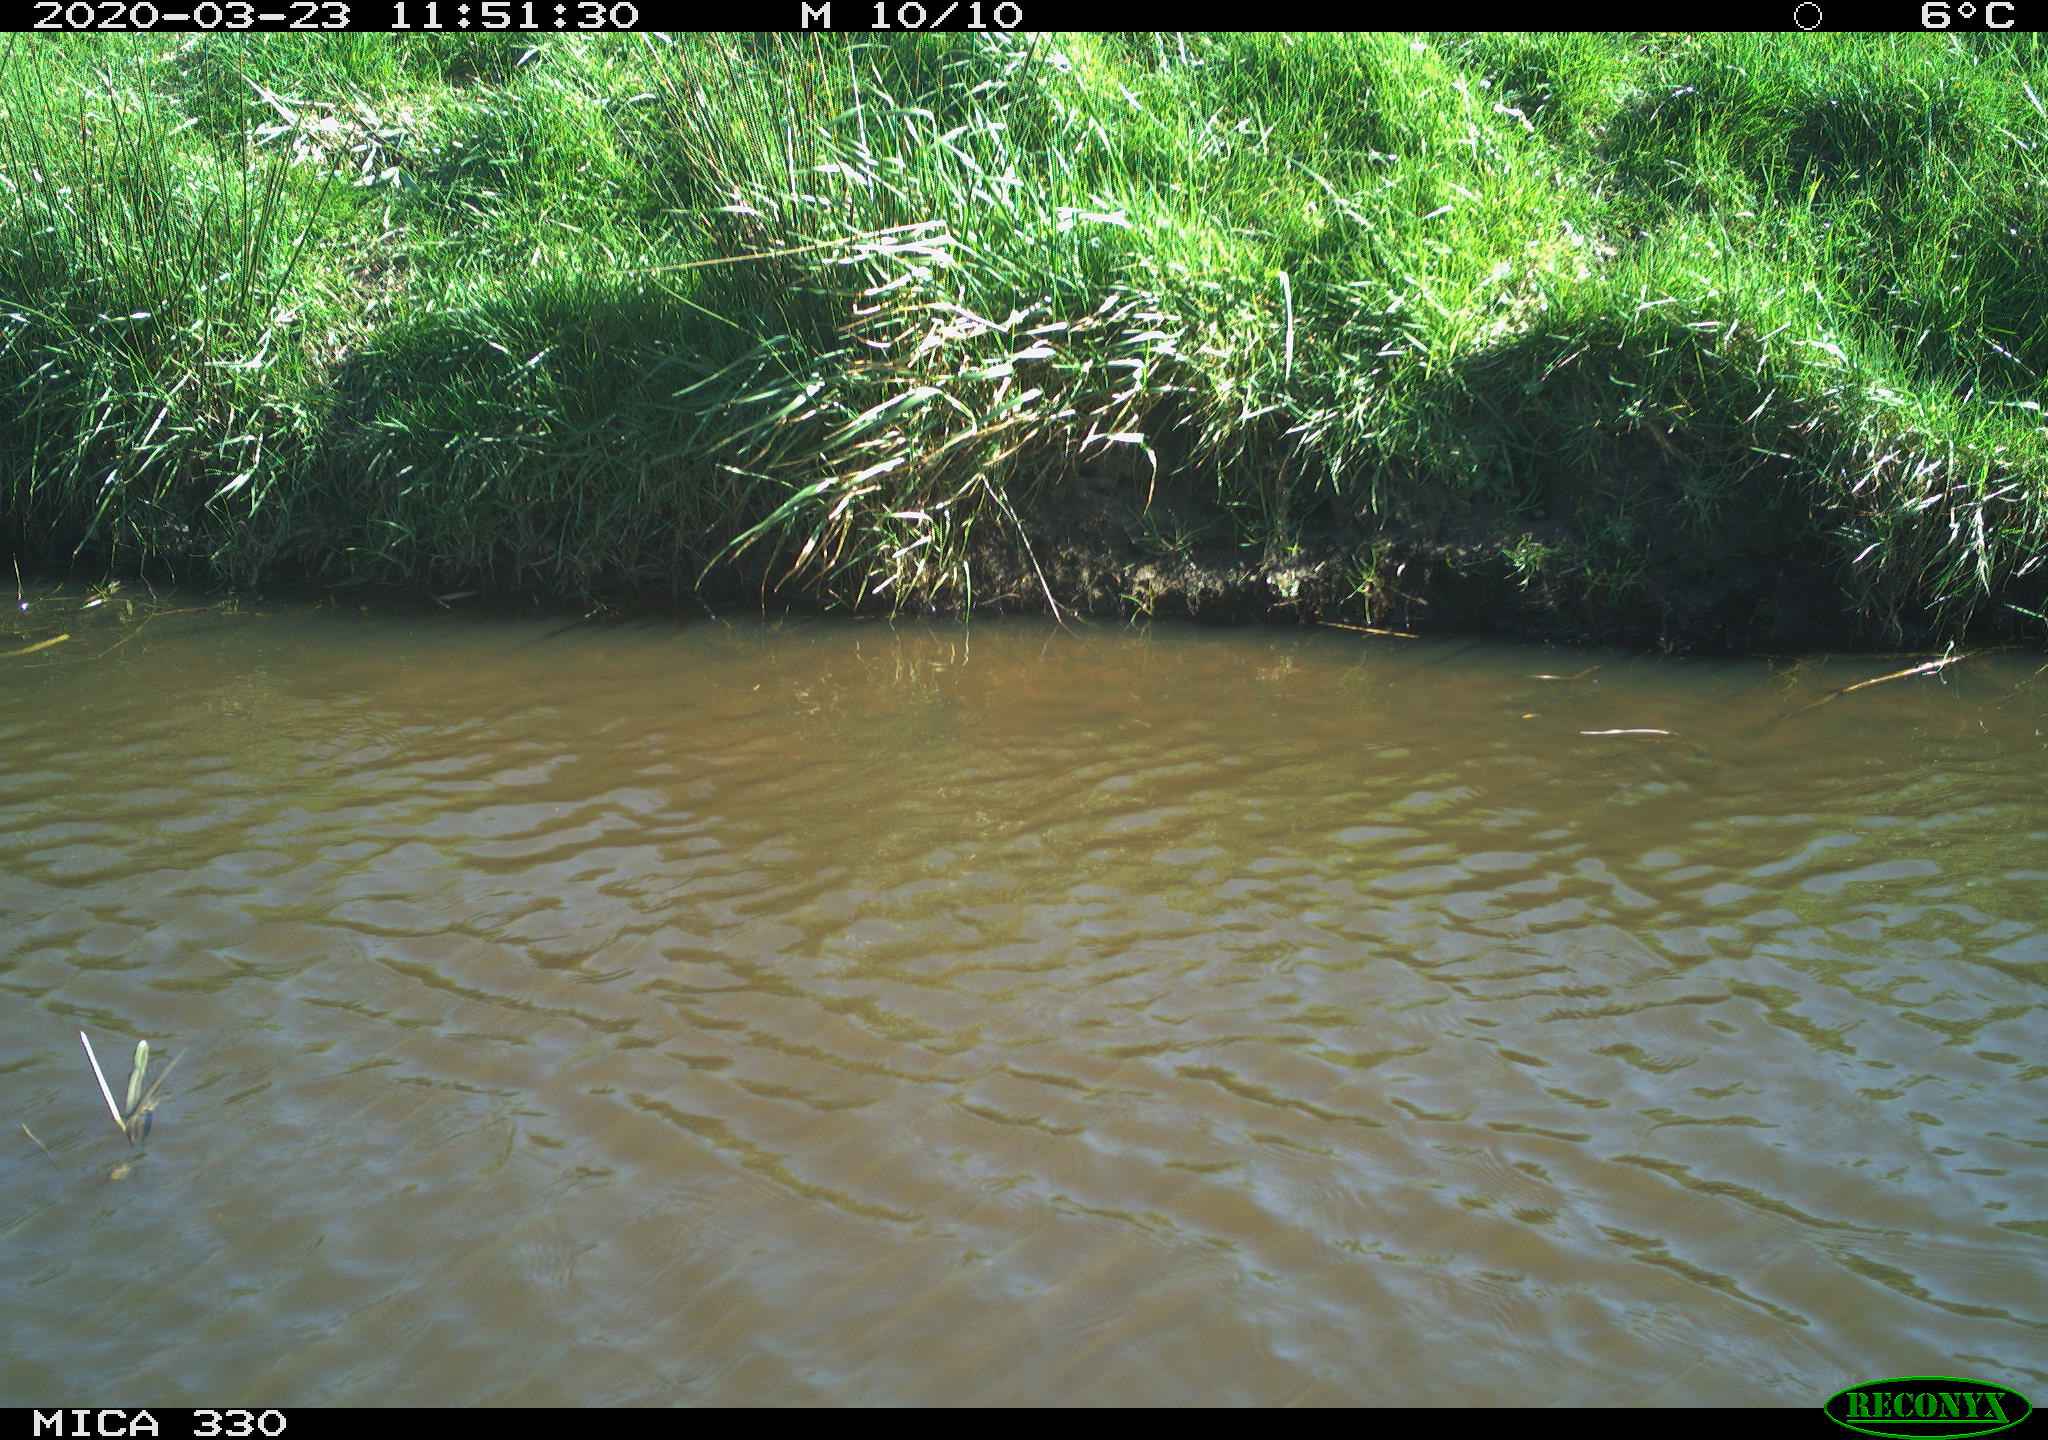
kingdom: Animalia
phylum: Chordata
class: Aves
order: Anseriformes
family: Anatidae
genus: Anas
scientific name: Anas platyrhynchos
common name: Mallard
